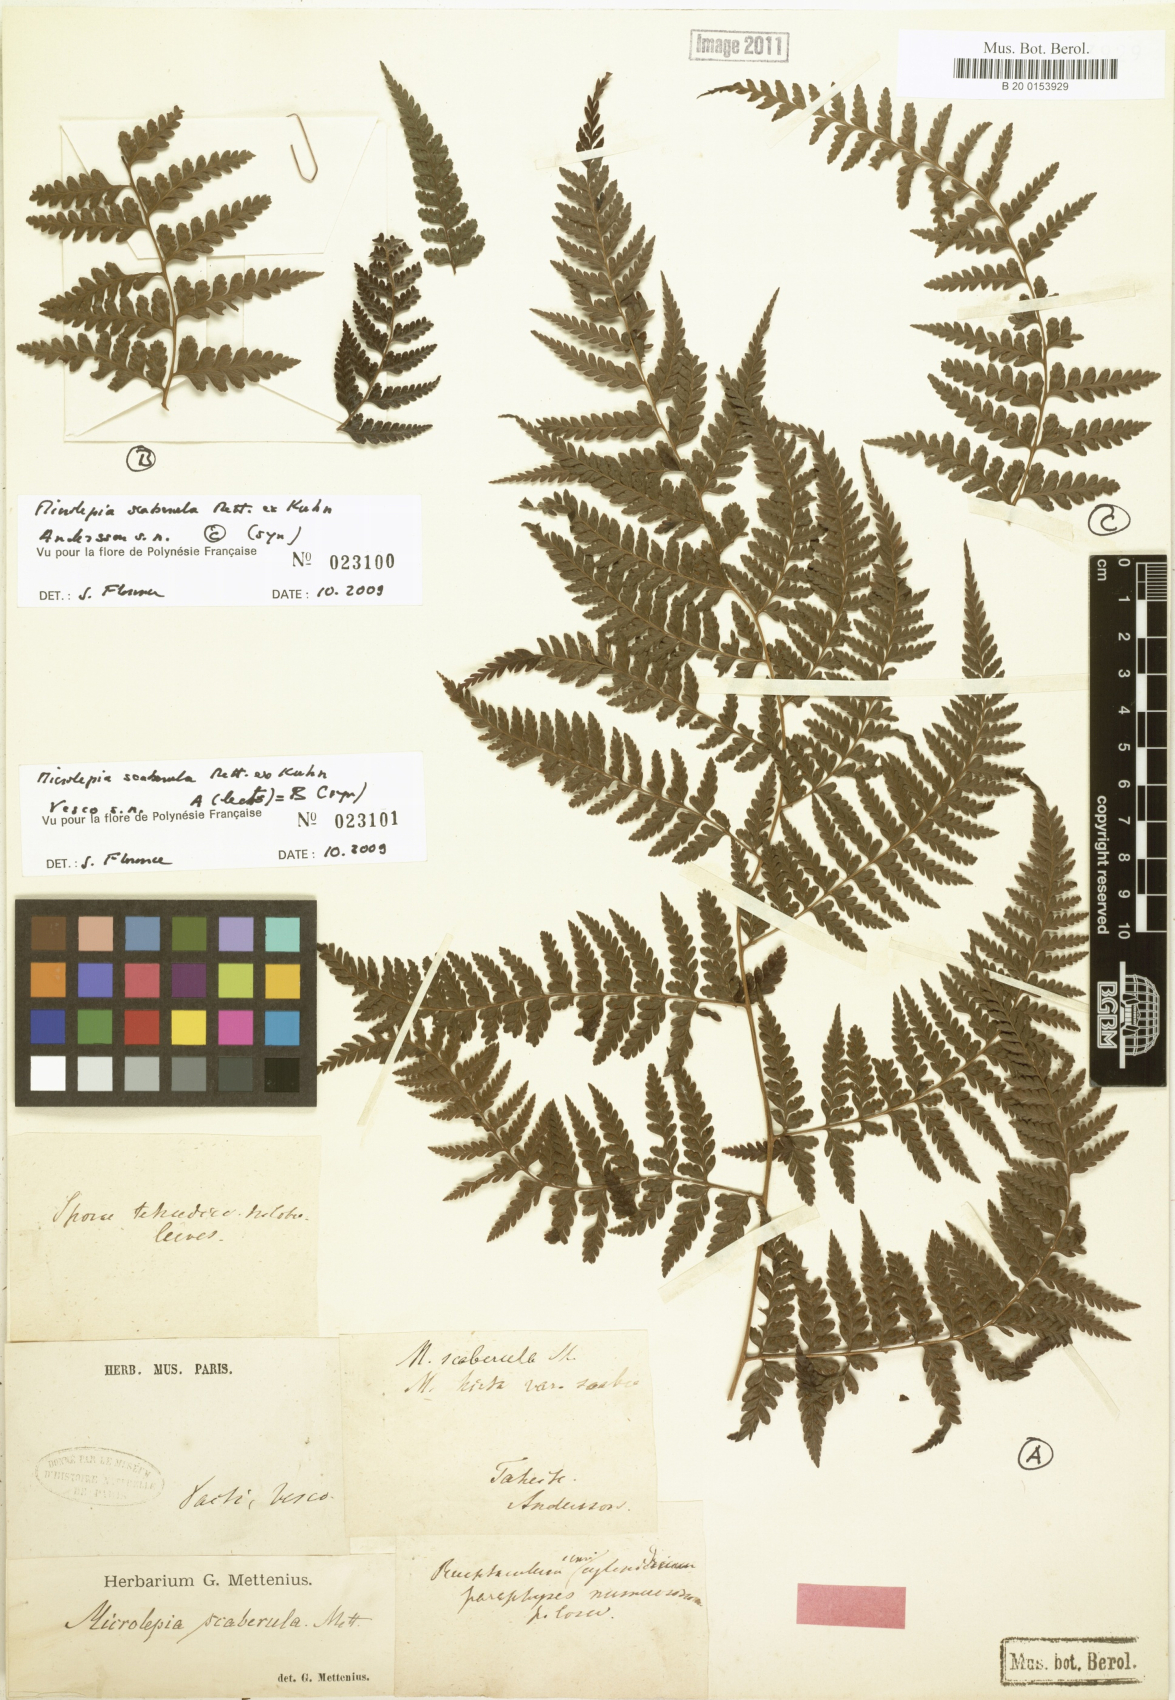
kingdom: Plantae
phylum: Tracheophyta
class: Polypodiopsida
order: Polypodiales
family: Dennstaedtiaceae
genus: Microlepia
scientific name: Microlepia scaberula
